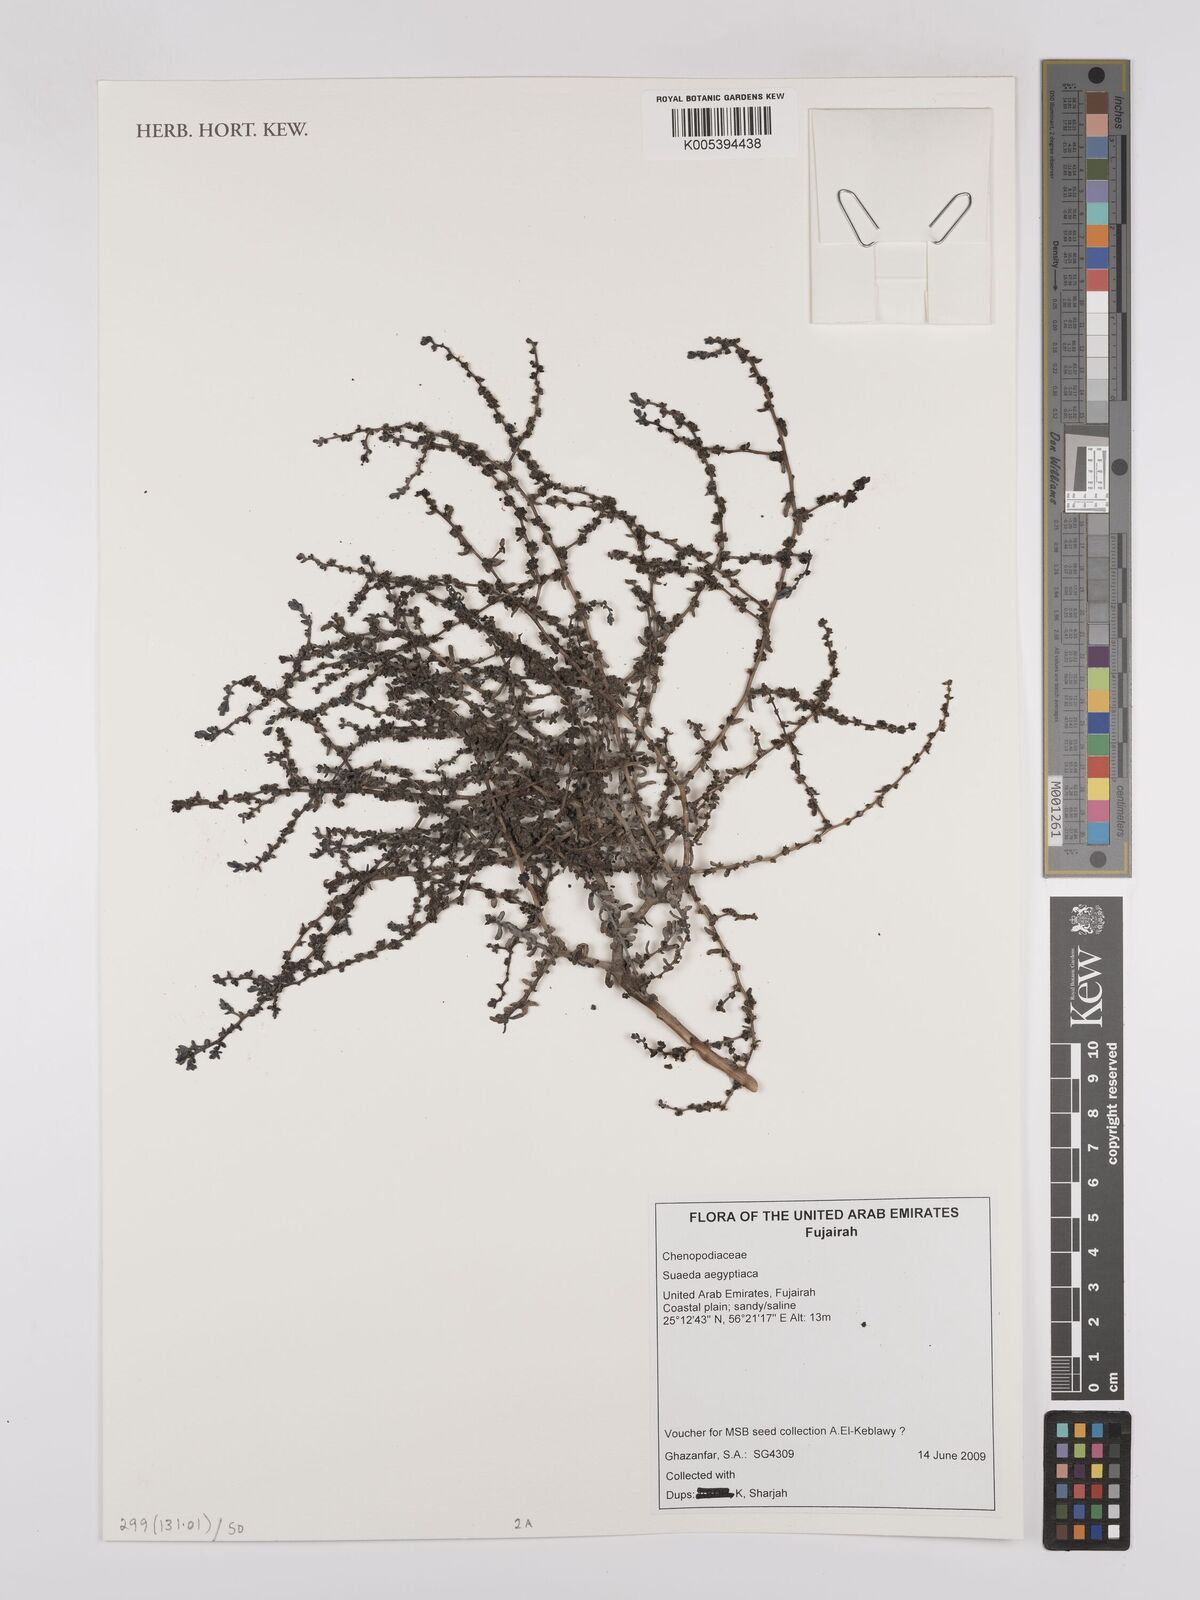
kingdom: Plantae
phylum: Tracheophyta
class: Magnoliopsida
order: Caryophyllales
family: Amaranthaceae
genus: Suaeda
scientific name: Suaeda aegyptiaca
